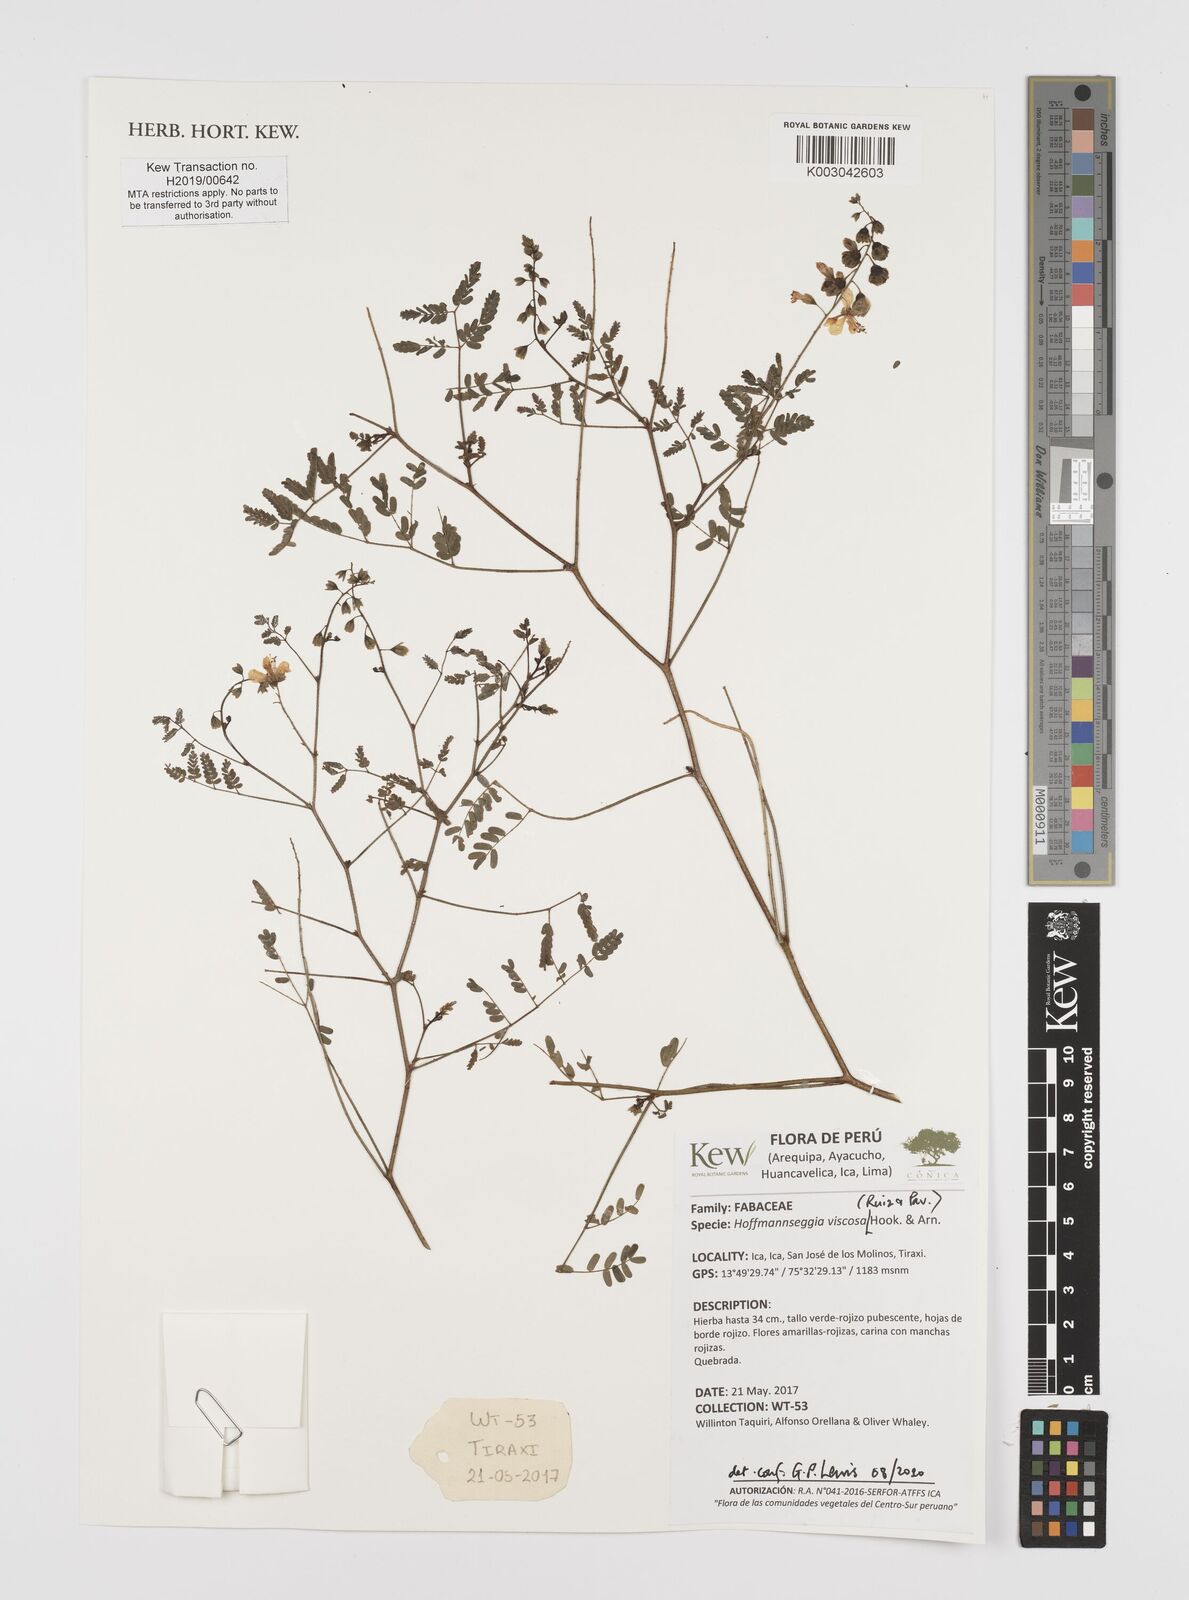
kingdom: Plantae
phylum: Tracheophyta
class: Magnoliopsida
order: Fabales
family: Fabaceae
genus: Hoffmannseggia
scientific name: Hoffmannseggia viscosa
